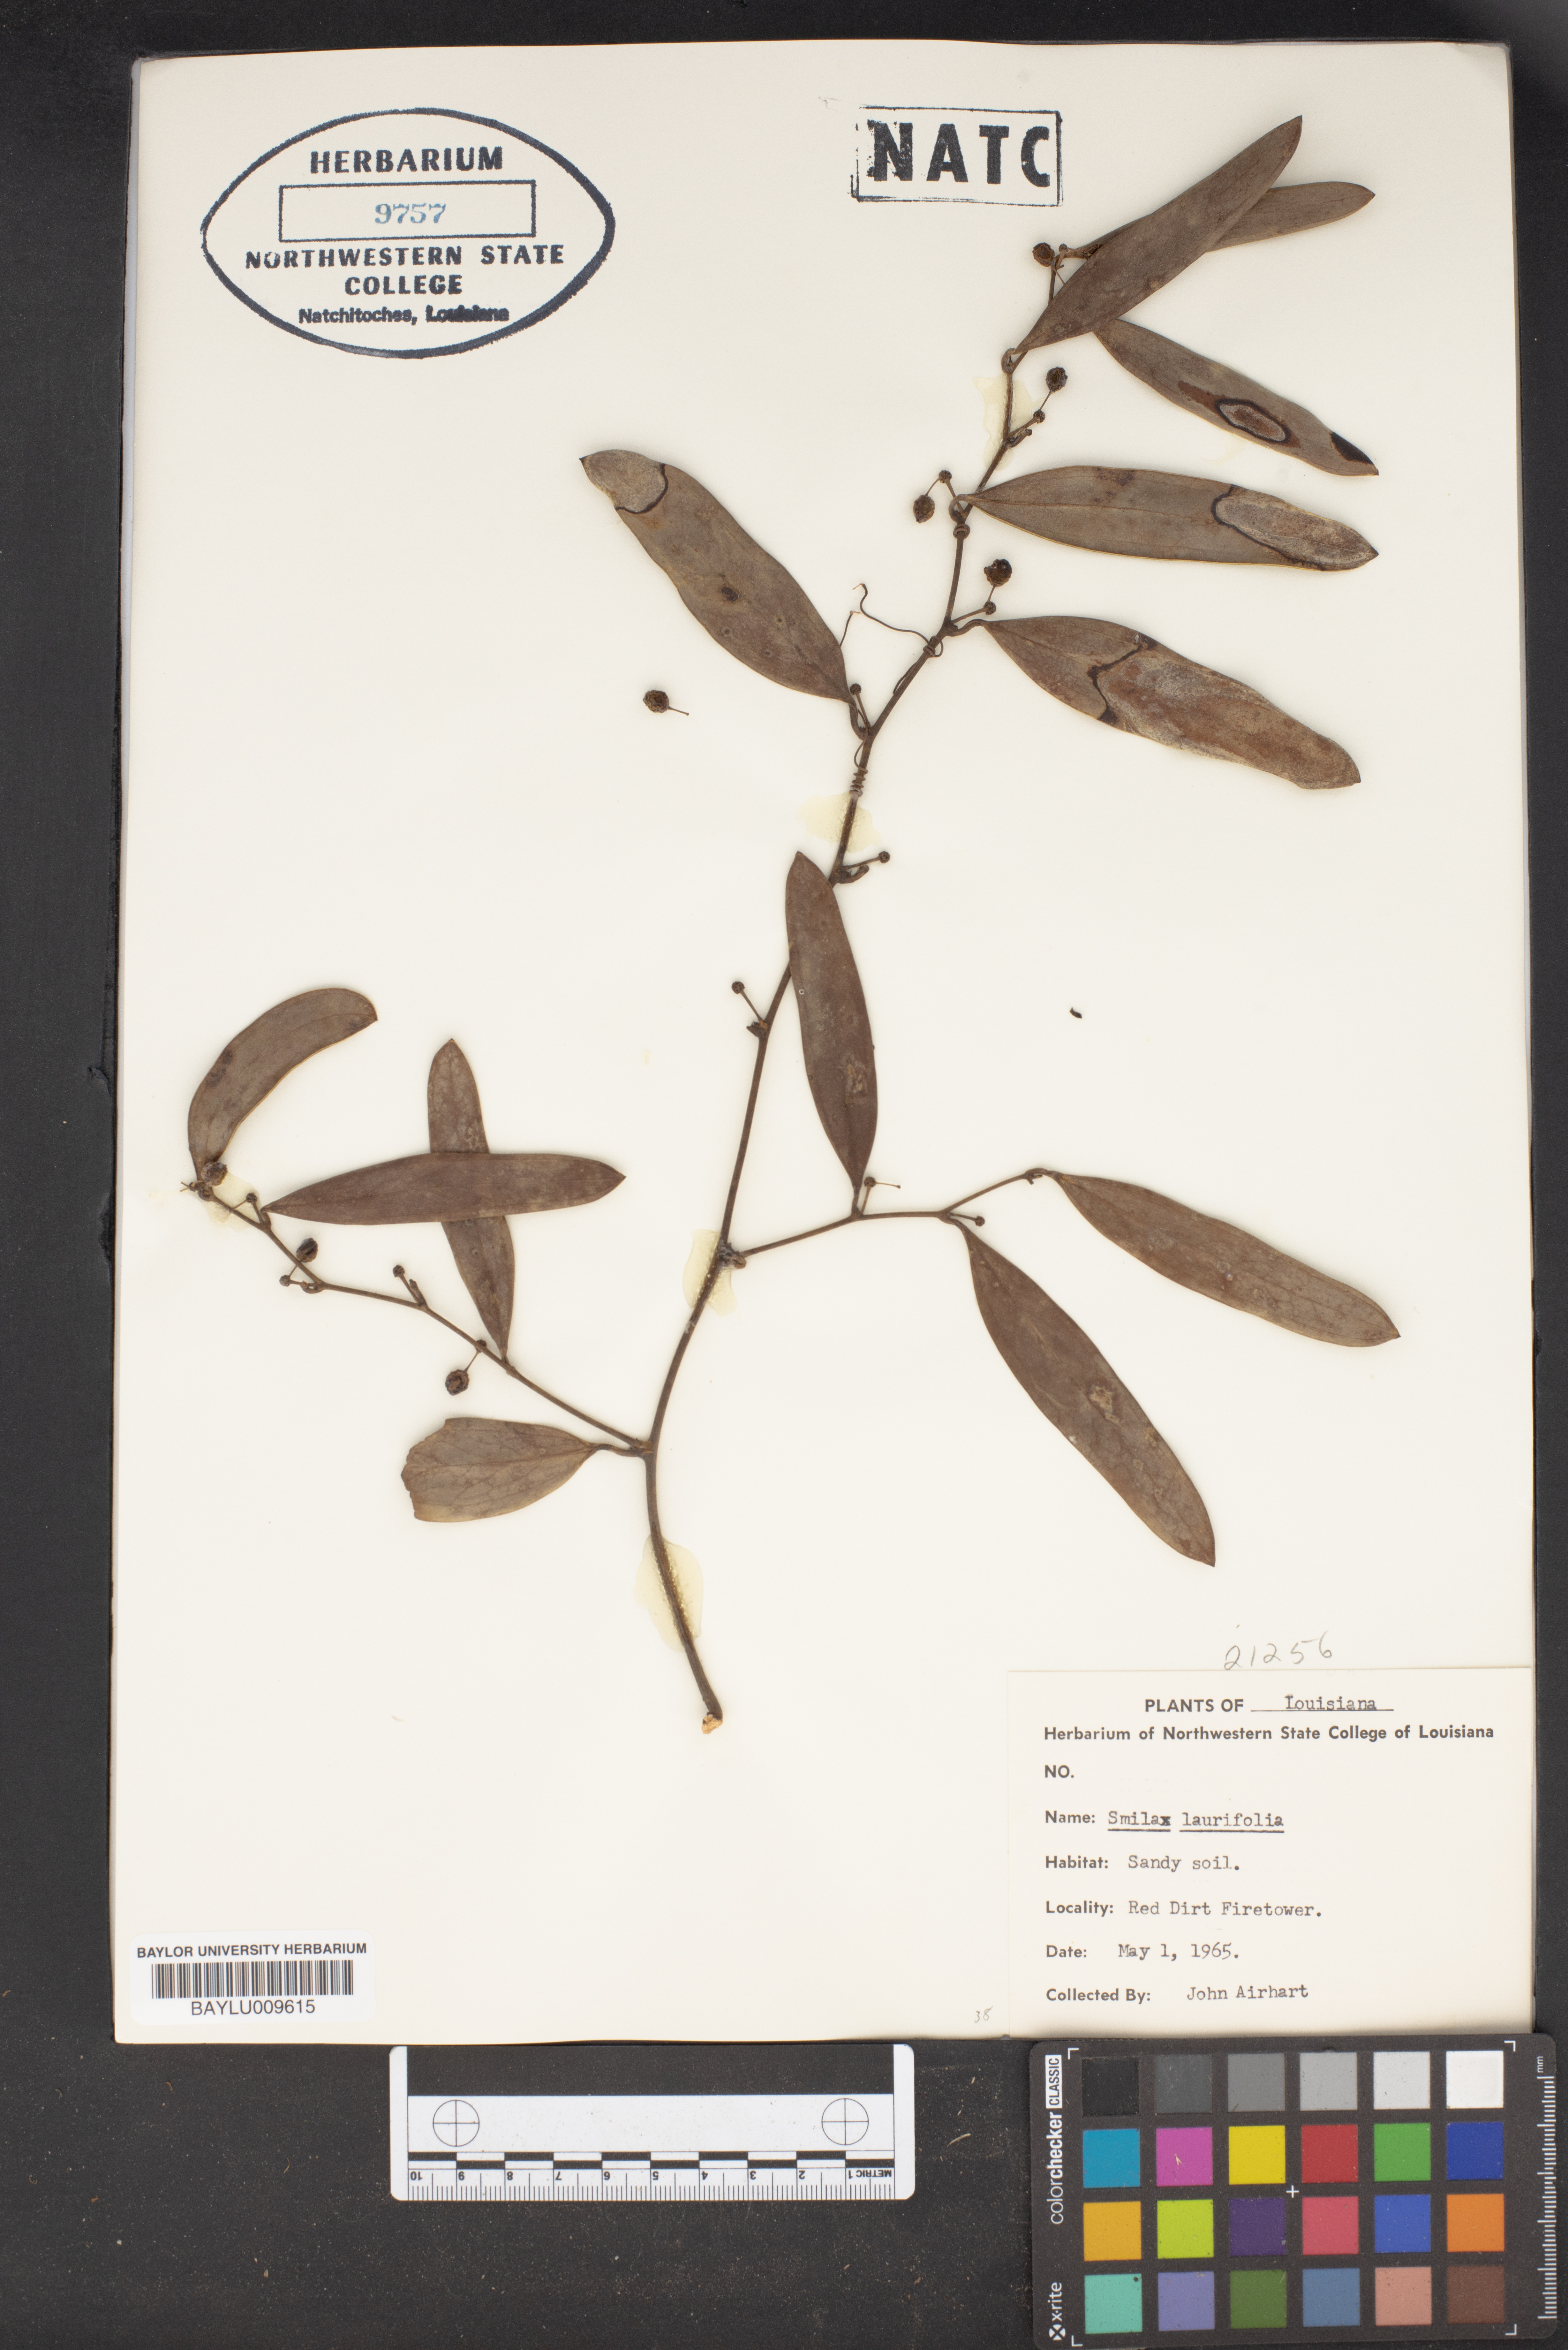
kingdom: Plantae
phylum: Tracheophyta
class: Liliopsida
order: Liliales
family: Smilacaceae
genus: Smilax
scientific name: Smilax laurifolia
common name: Bamboovine
